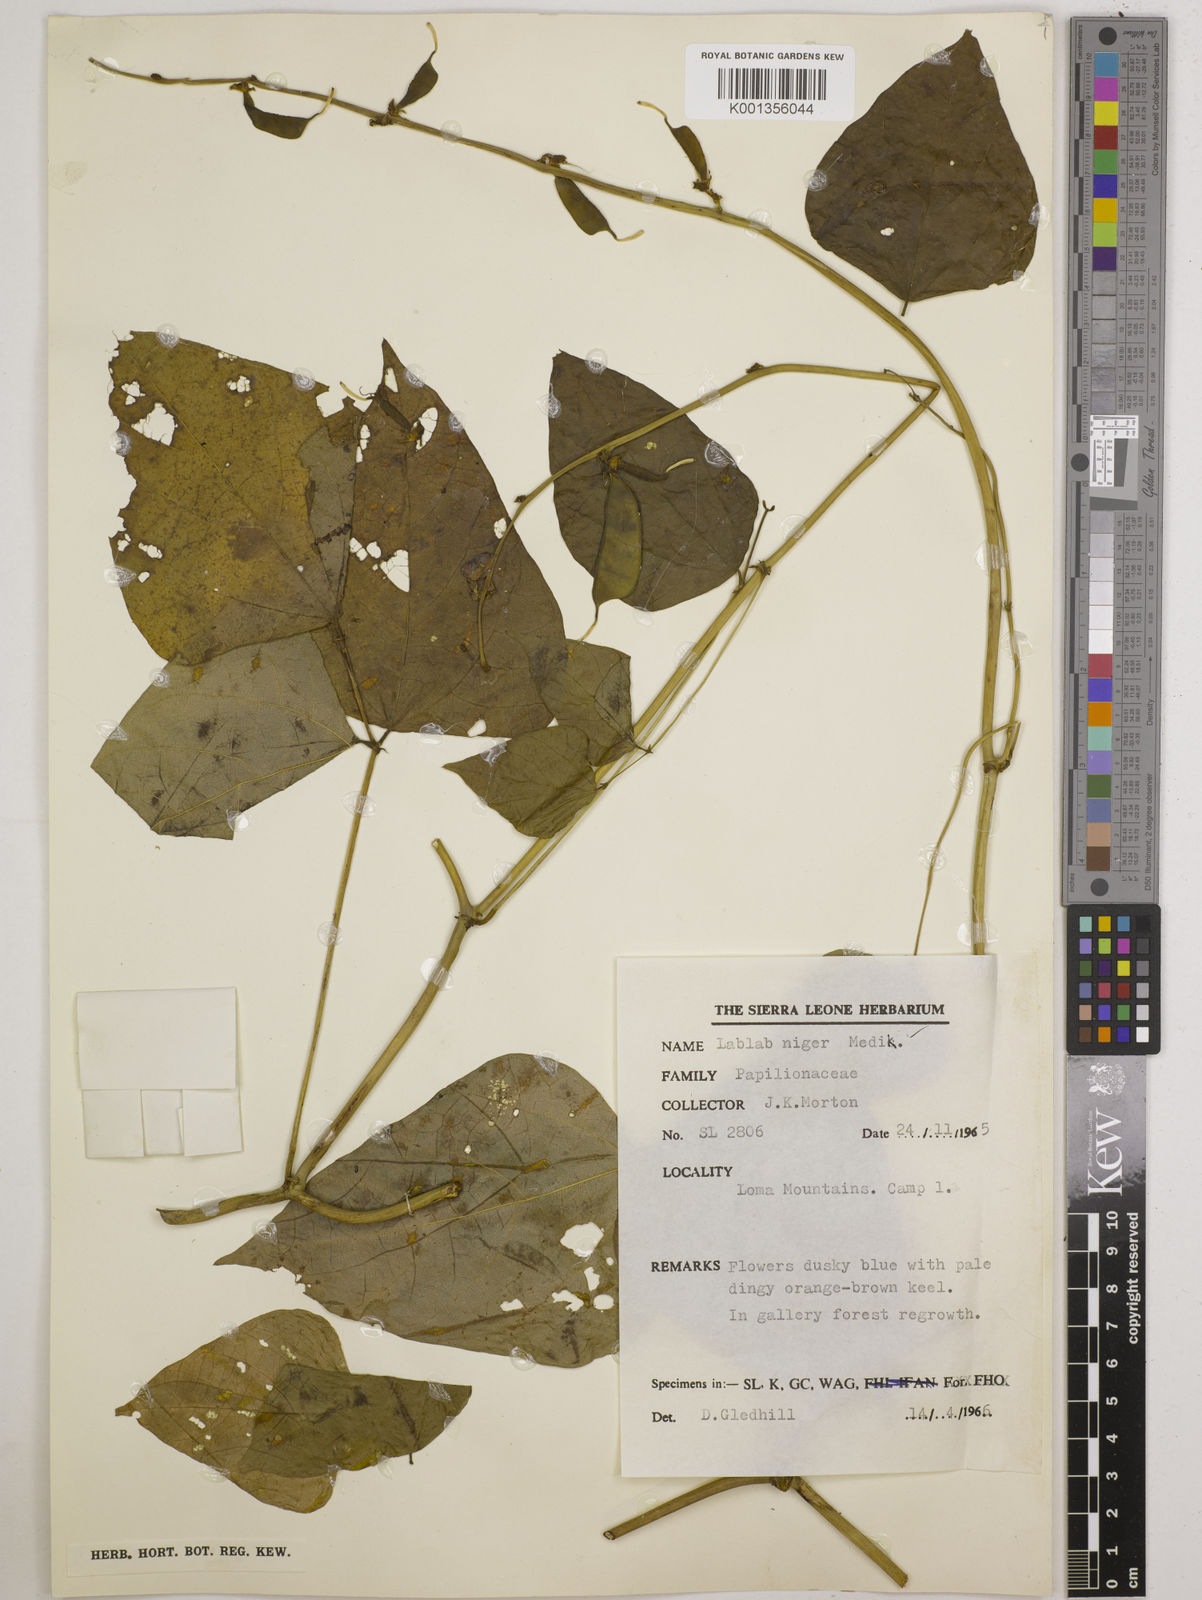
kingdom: Plantae
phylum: Tracheophyta
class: Magnoliopsida
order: Fabales
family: Fabaceae
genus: Lablab
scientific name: Lablab purpureus
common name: Lablab-bean
